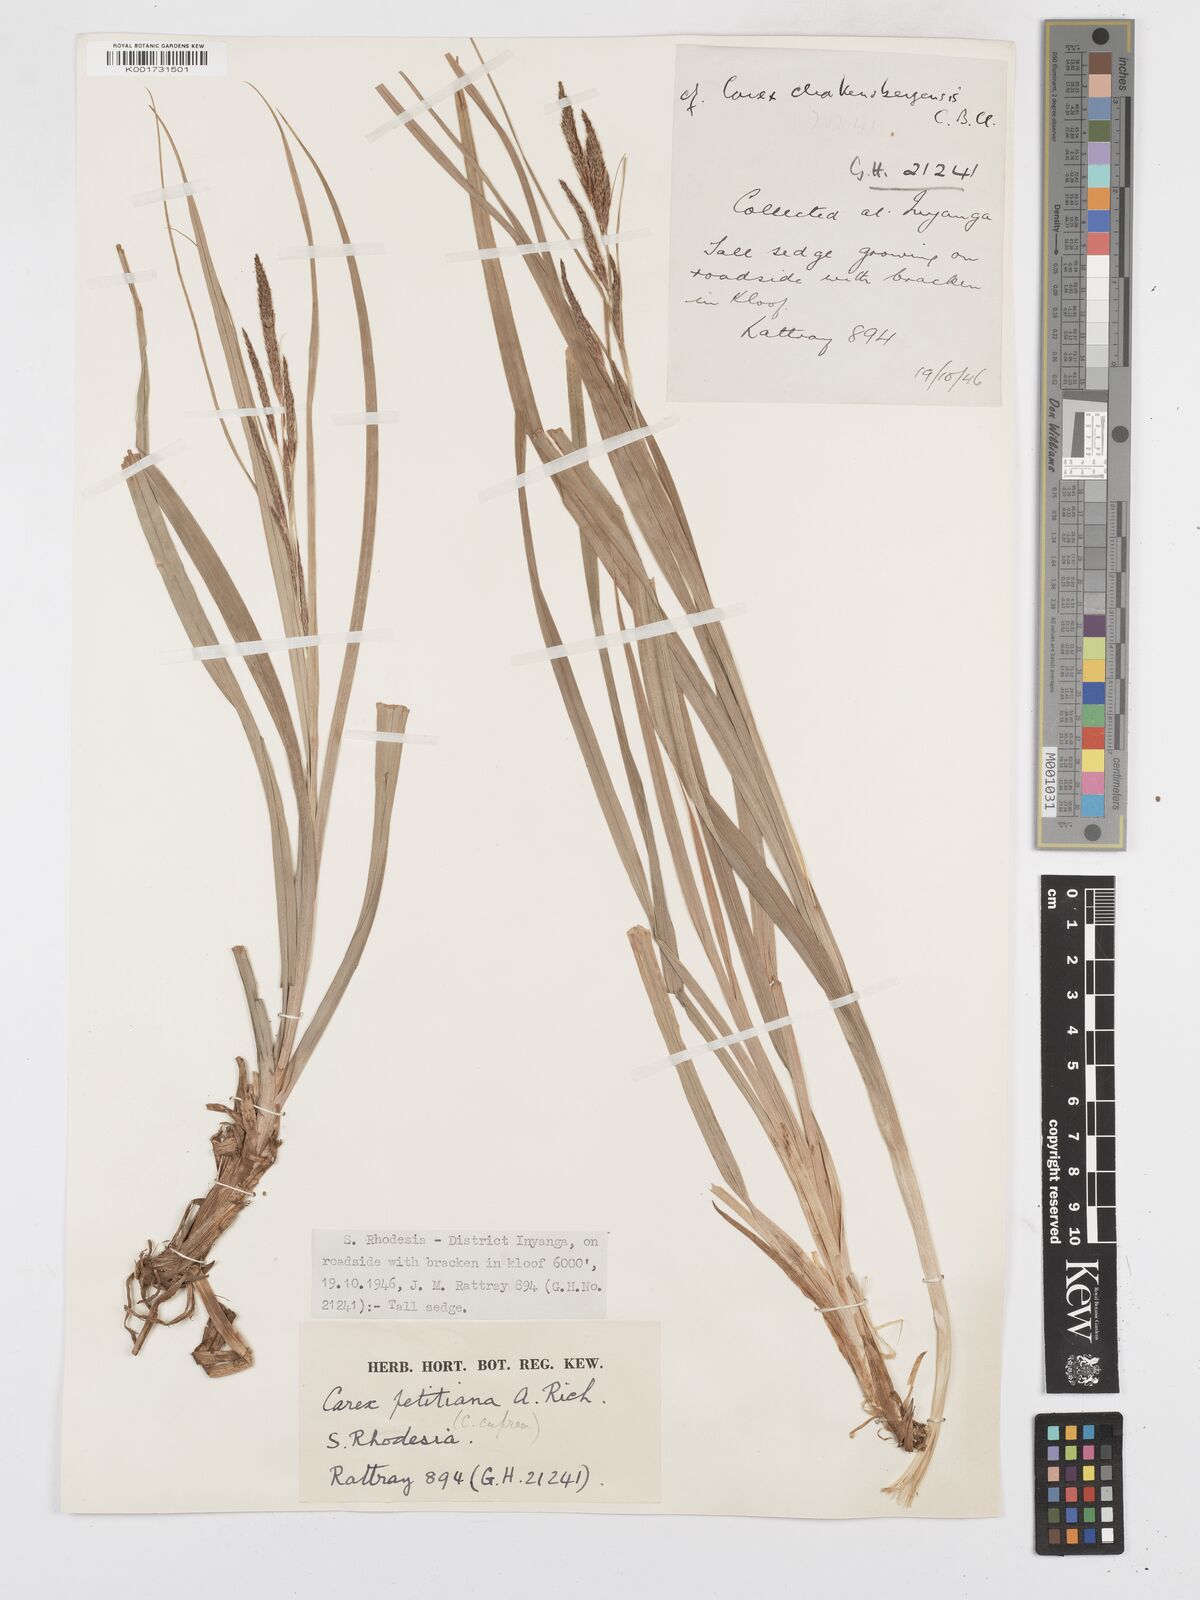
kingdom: Plantae
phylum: Tracheophyta
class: Liliopsida
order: Poales
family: Cyperaceae
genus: Carex
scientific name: Carex petitiana
